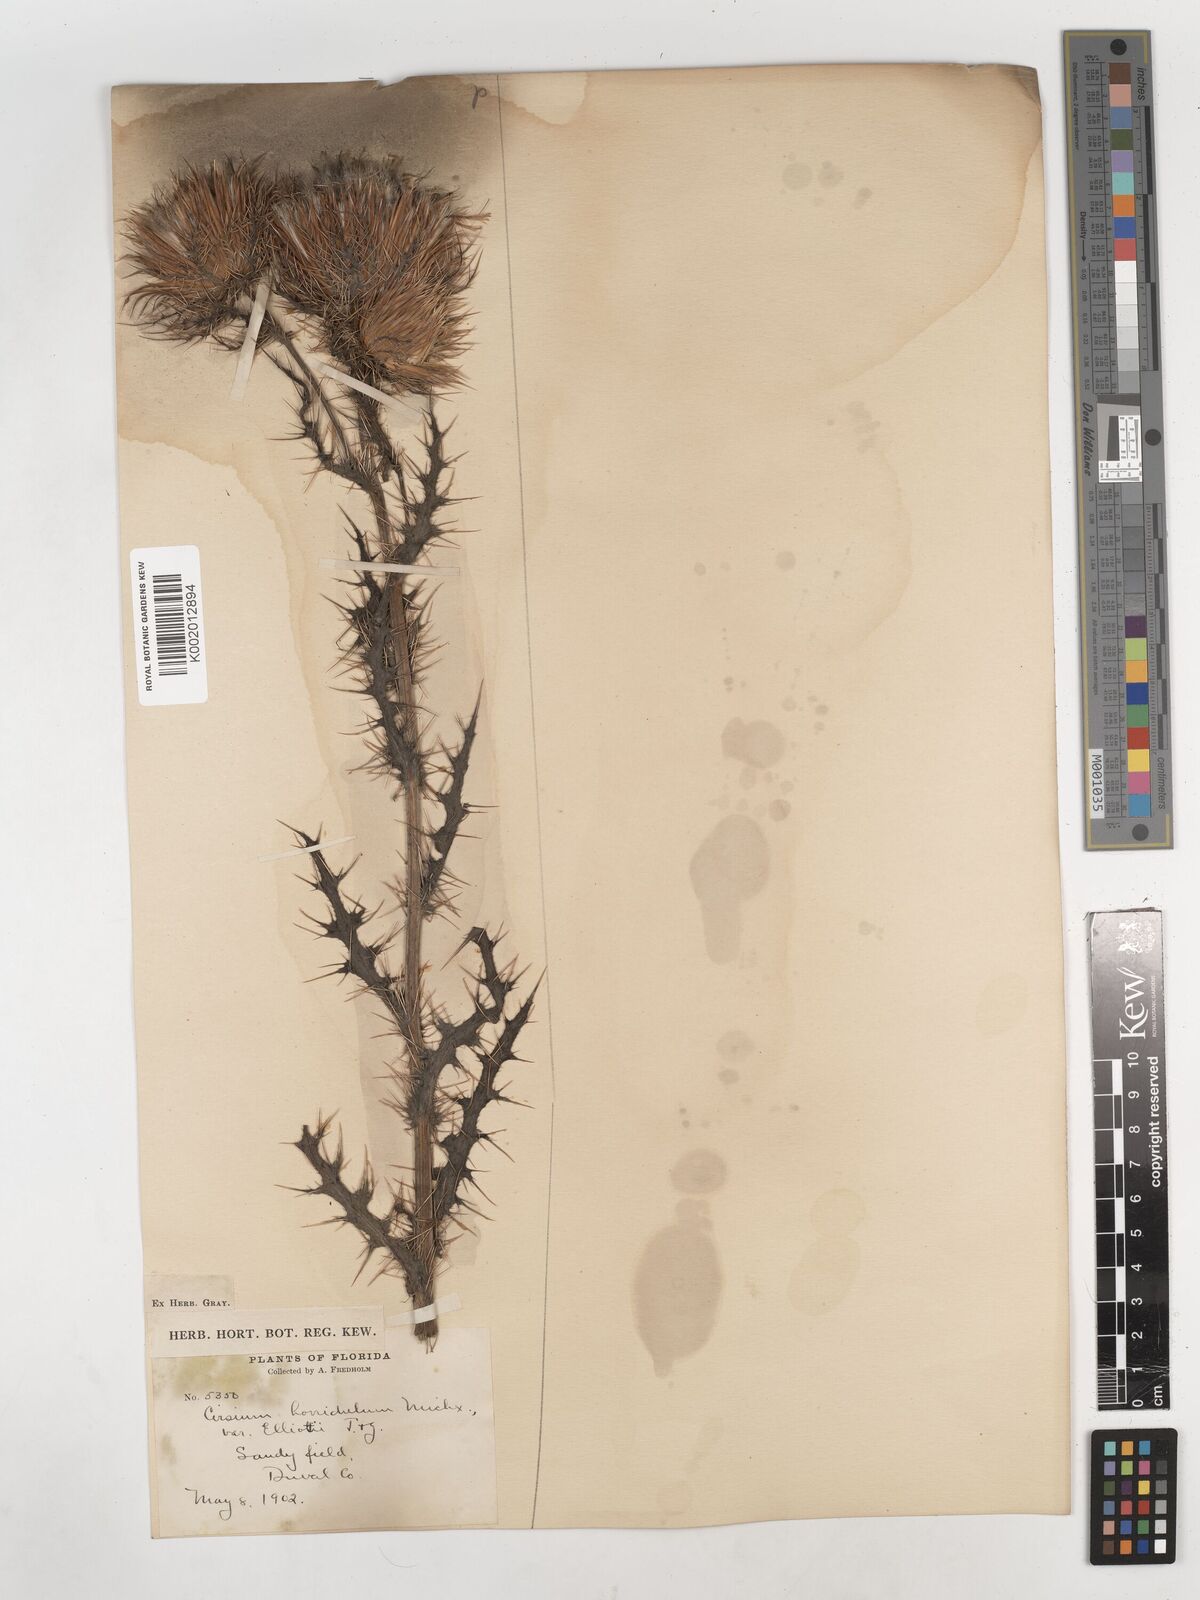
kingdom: Plantae
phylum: Tracheophyta
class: Magnoliopsida
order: Asterales
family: Asteraceae
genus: Cirsium
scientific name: Cirsium horridulum
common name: Bristly thistle
